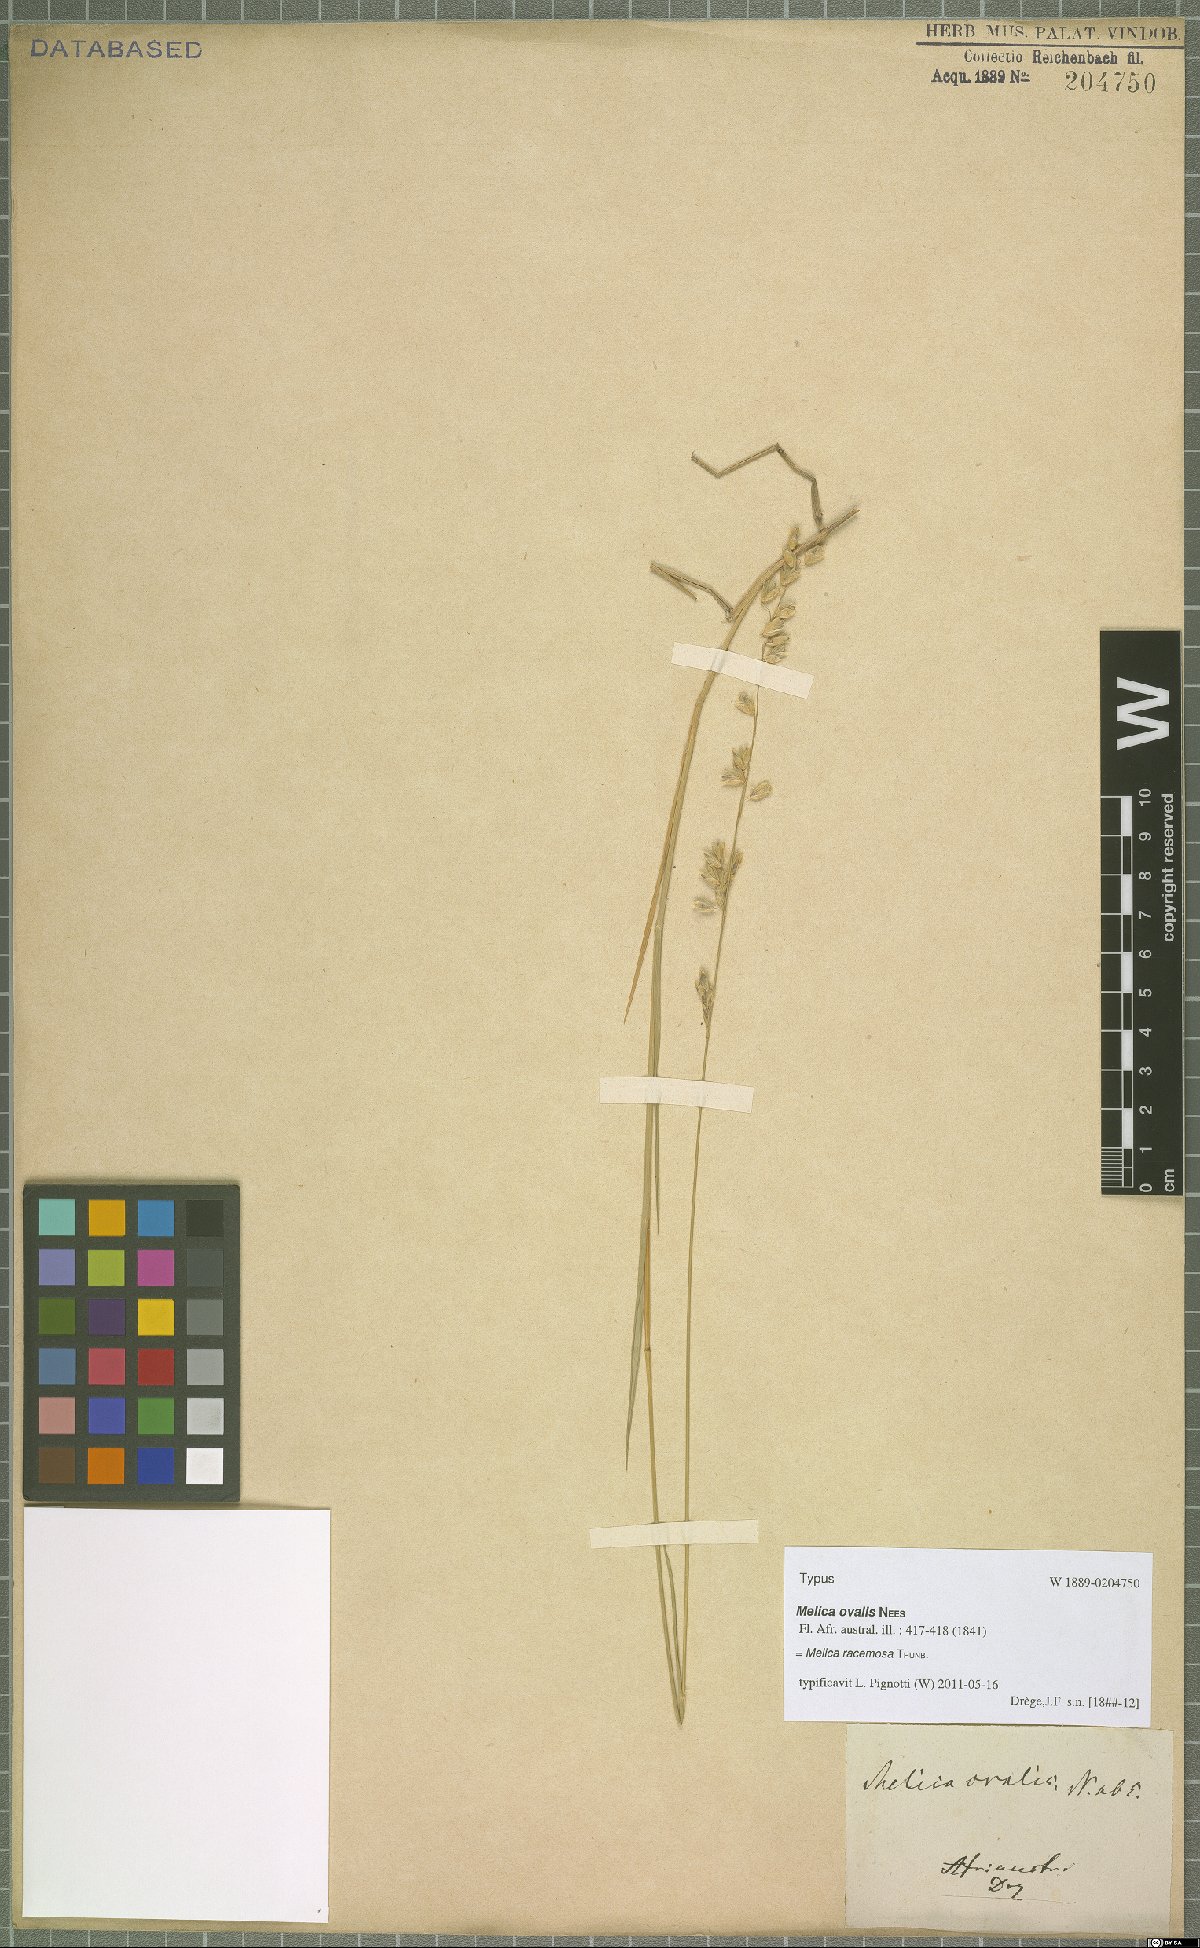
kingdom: Plantae
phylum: Tracheophyta
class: Liliopsida
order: Poales
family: Poaceae
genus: Melica
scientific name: Melica racemosa
